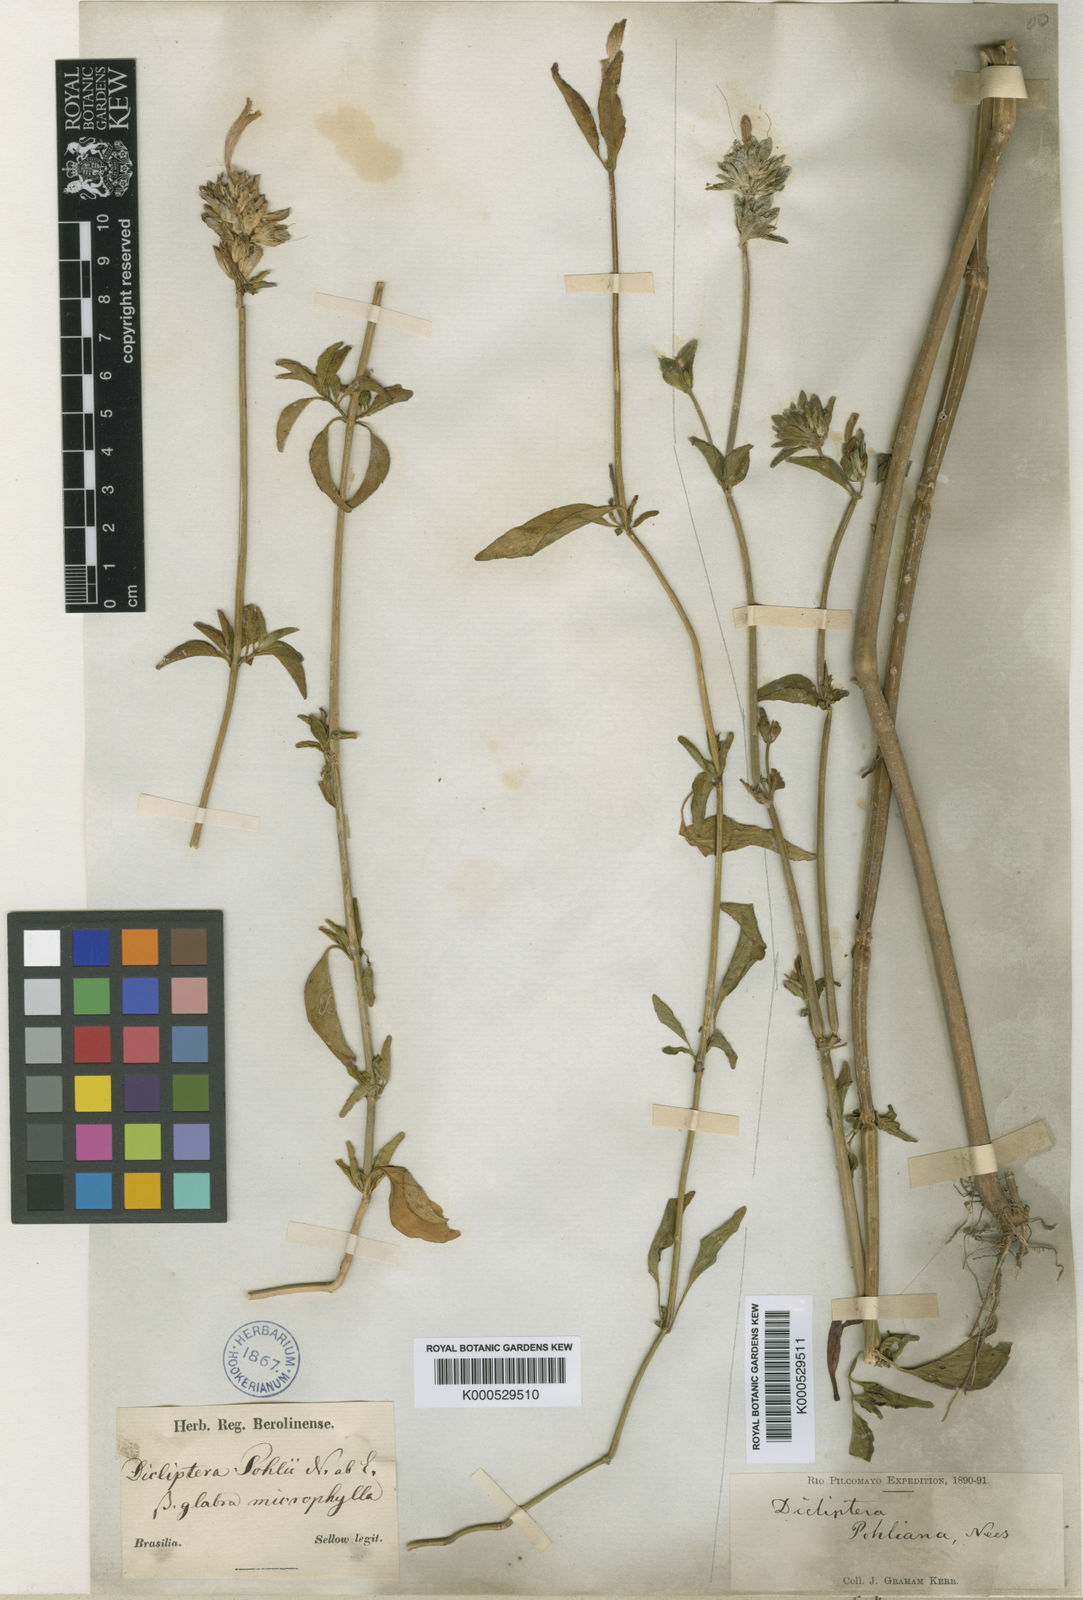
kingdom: Plantae
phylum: Tracheophyta
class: Magnoliopsida
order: Lamiales
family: Acanthaceae
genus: Dicliptera
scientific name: Dicliptera squarrosa
